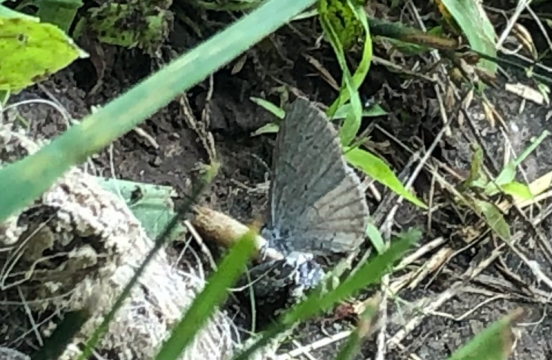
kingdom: Animalia
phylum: Arthropoda
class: Insecta
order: Lepidoptera
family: Lycaenidae
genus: Celastrina
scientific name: Celastrina
